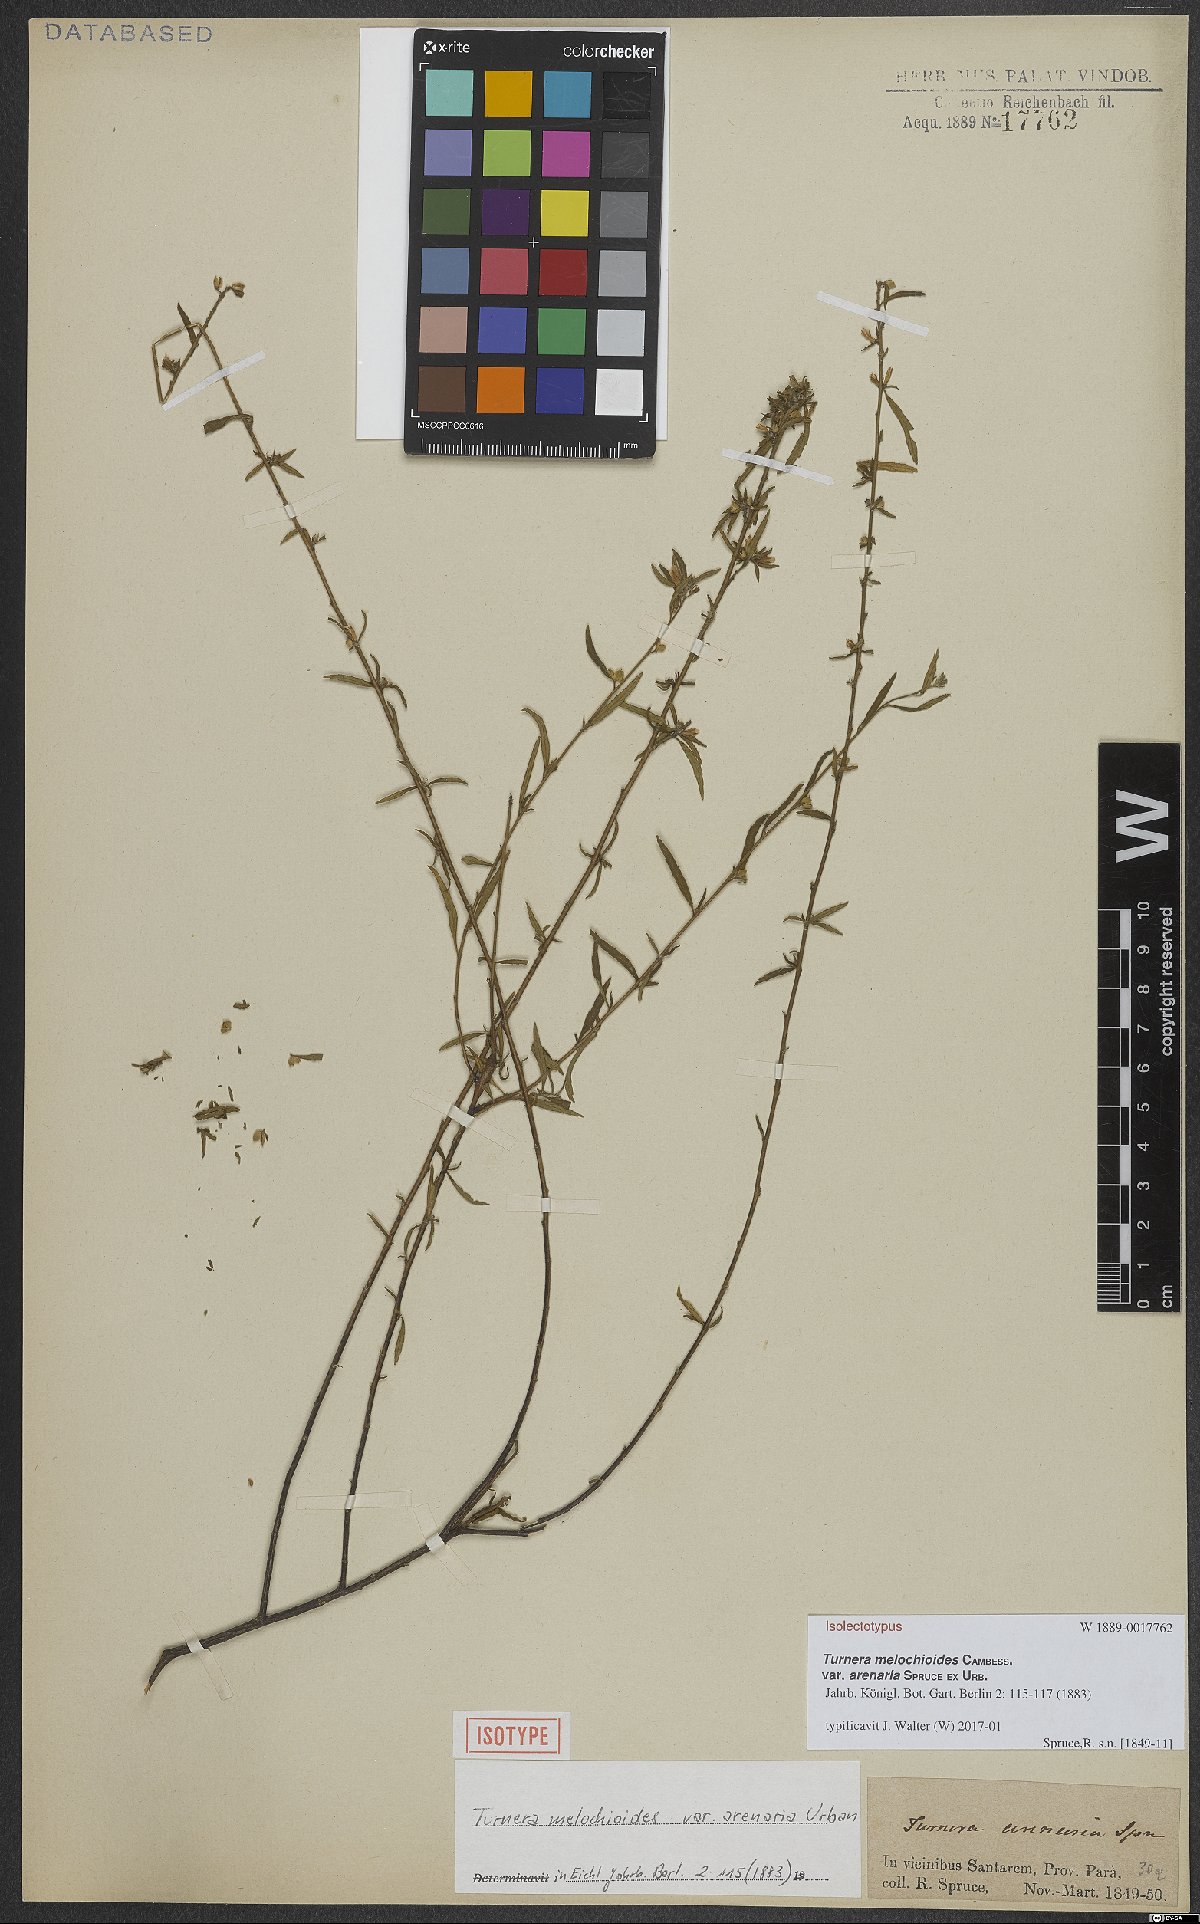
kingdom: Plantae
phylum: Tracheophyta
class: Magnoliopsida
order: Malpighiales
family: Turneraceae
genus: Turnera
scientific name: Turnera arenaria
